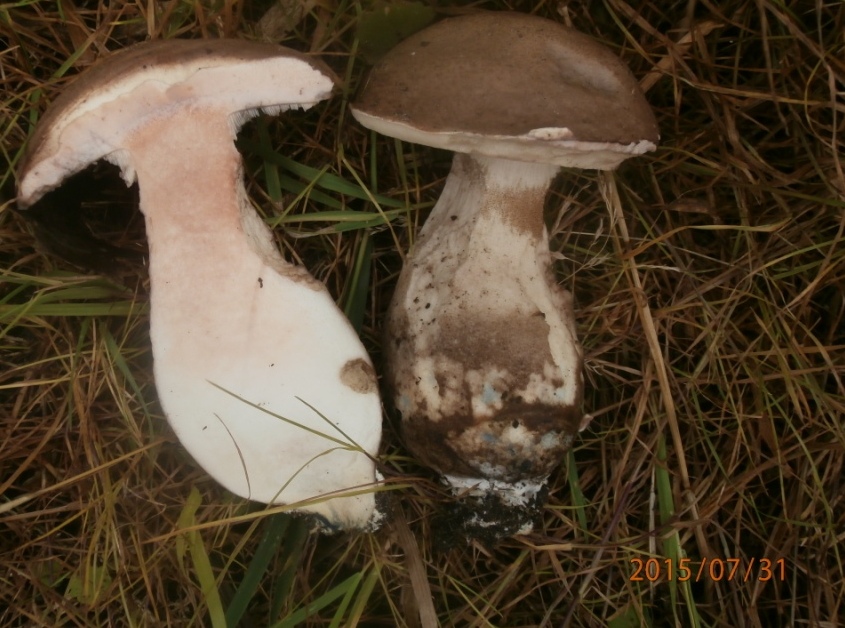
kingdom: Fungi
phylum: Basidiomycota
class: Agaricomycetes
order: Boletales
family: Boletaceae
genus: Leccinum
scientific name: Leccinum duriusculum
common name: poppel-skælrørhat
